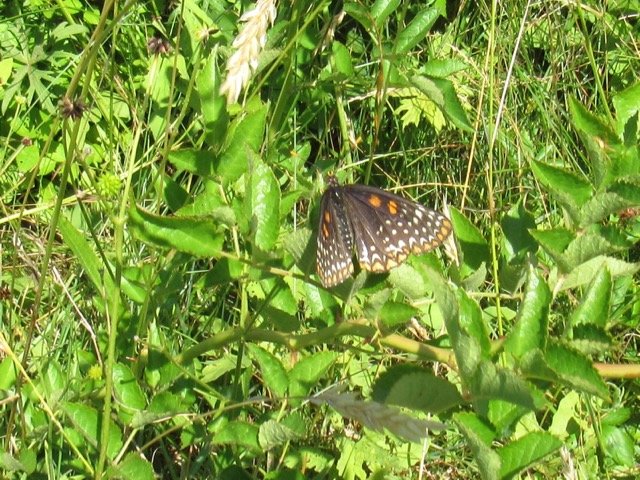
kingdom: Animalia
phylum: Arthropoda
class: Insecta
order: Lepidoptera
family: Nymphalidae
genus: Euphydryas
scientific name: Euphydryas phaeton
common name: Baltimore Checkerspot
